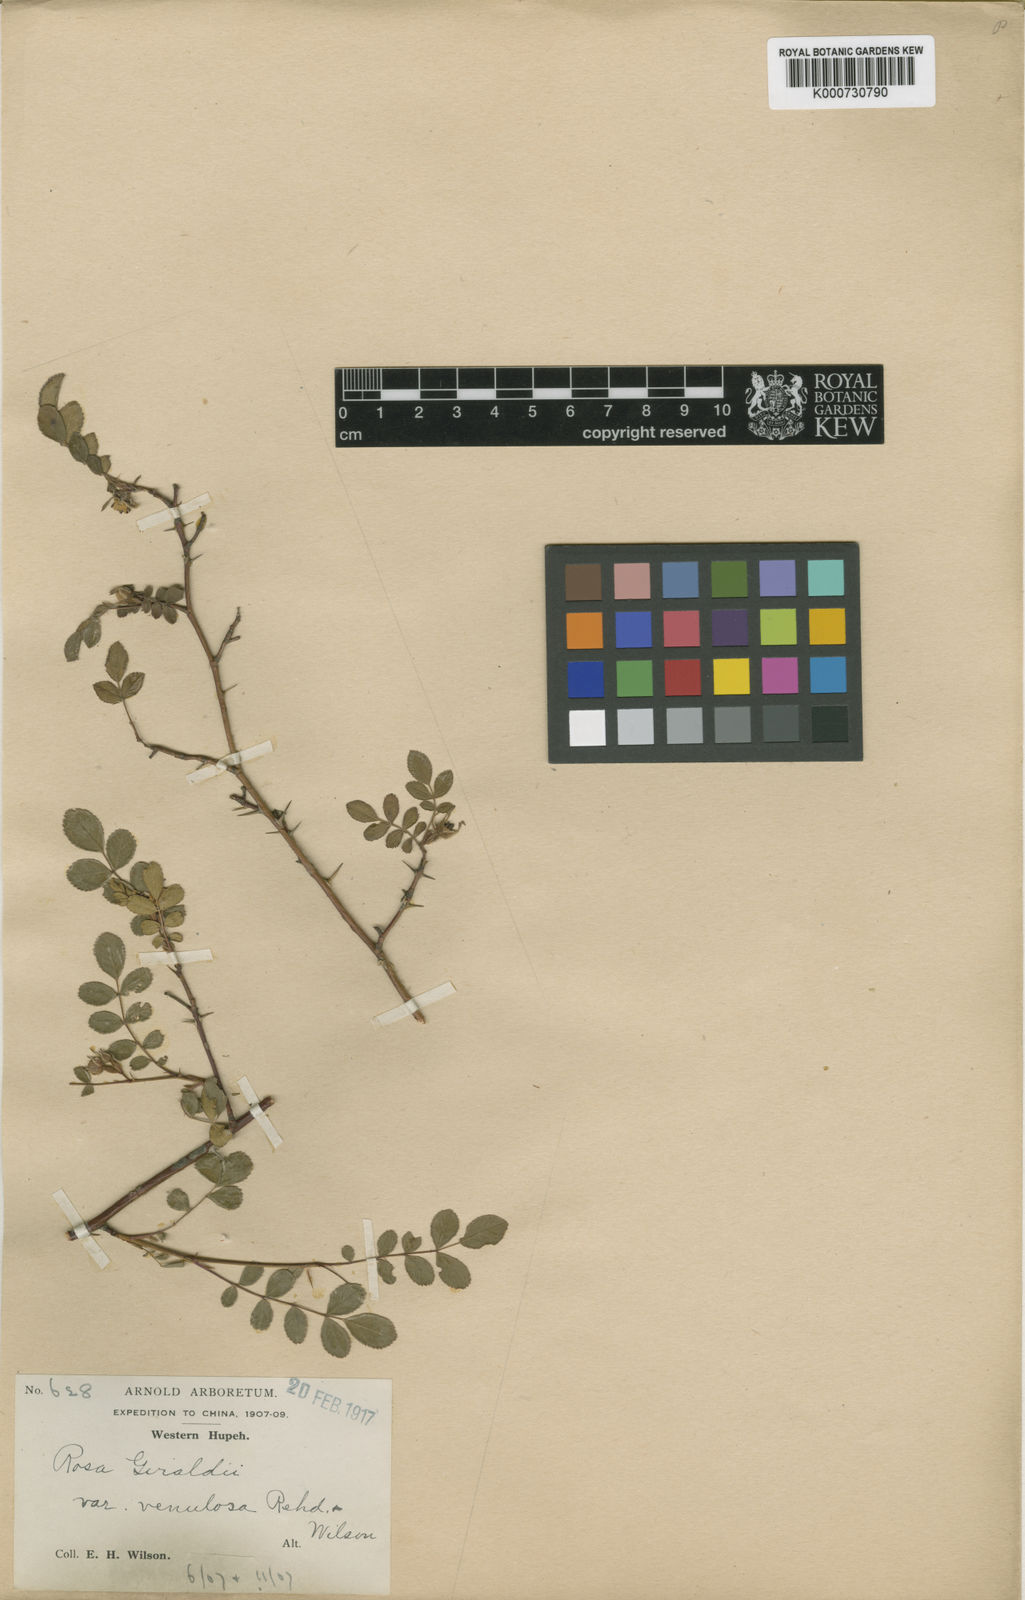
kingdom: Plantae
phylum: Tracheophyta
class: Magnoliopsida
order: Rosales
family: Rosaceae
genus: Rosa
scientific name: Rosa
